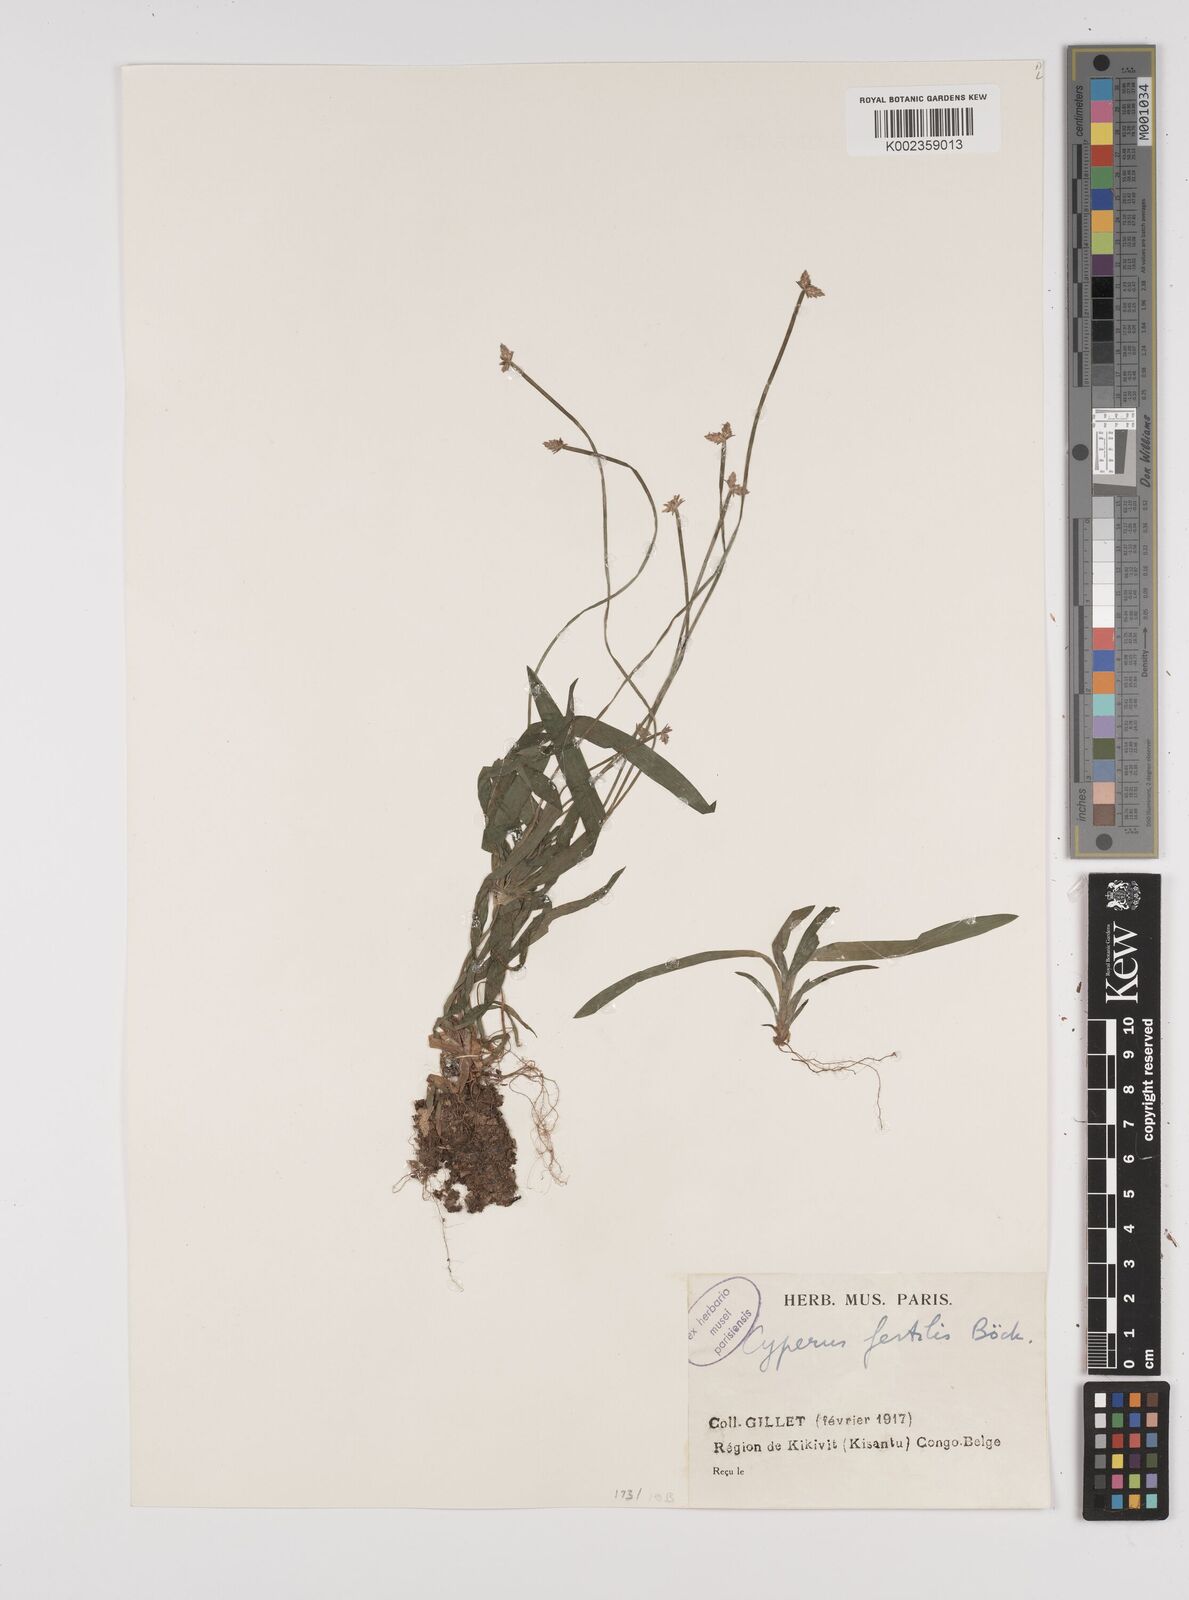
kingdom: Plantae
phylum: Tracheophyta
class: Liliopsida
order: Poales
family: Cyperaceae
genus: Cyperus
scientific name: Cyperus fertilis
